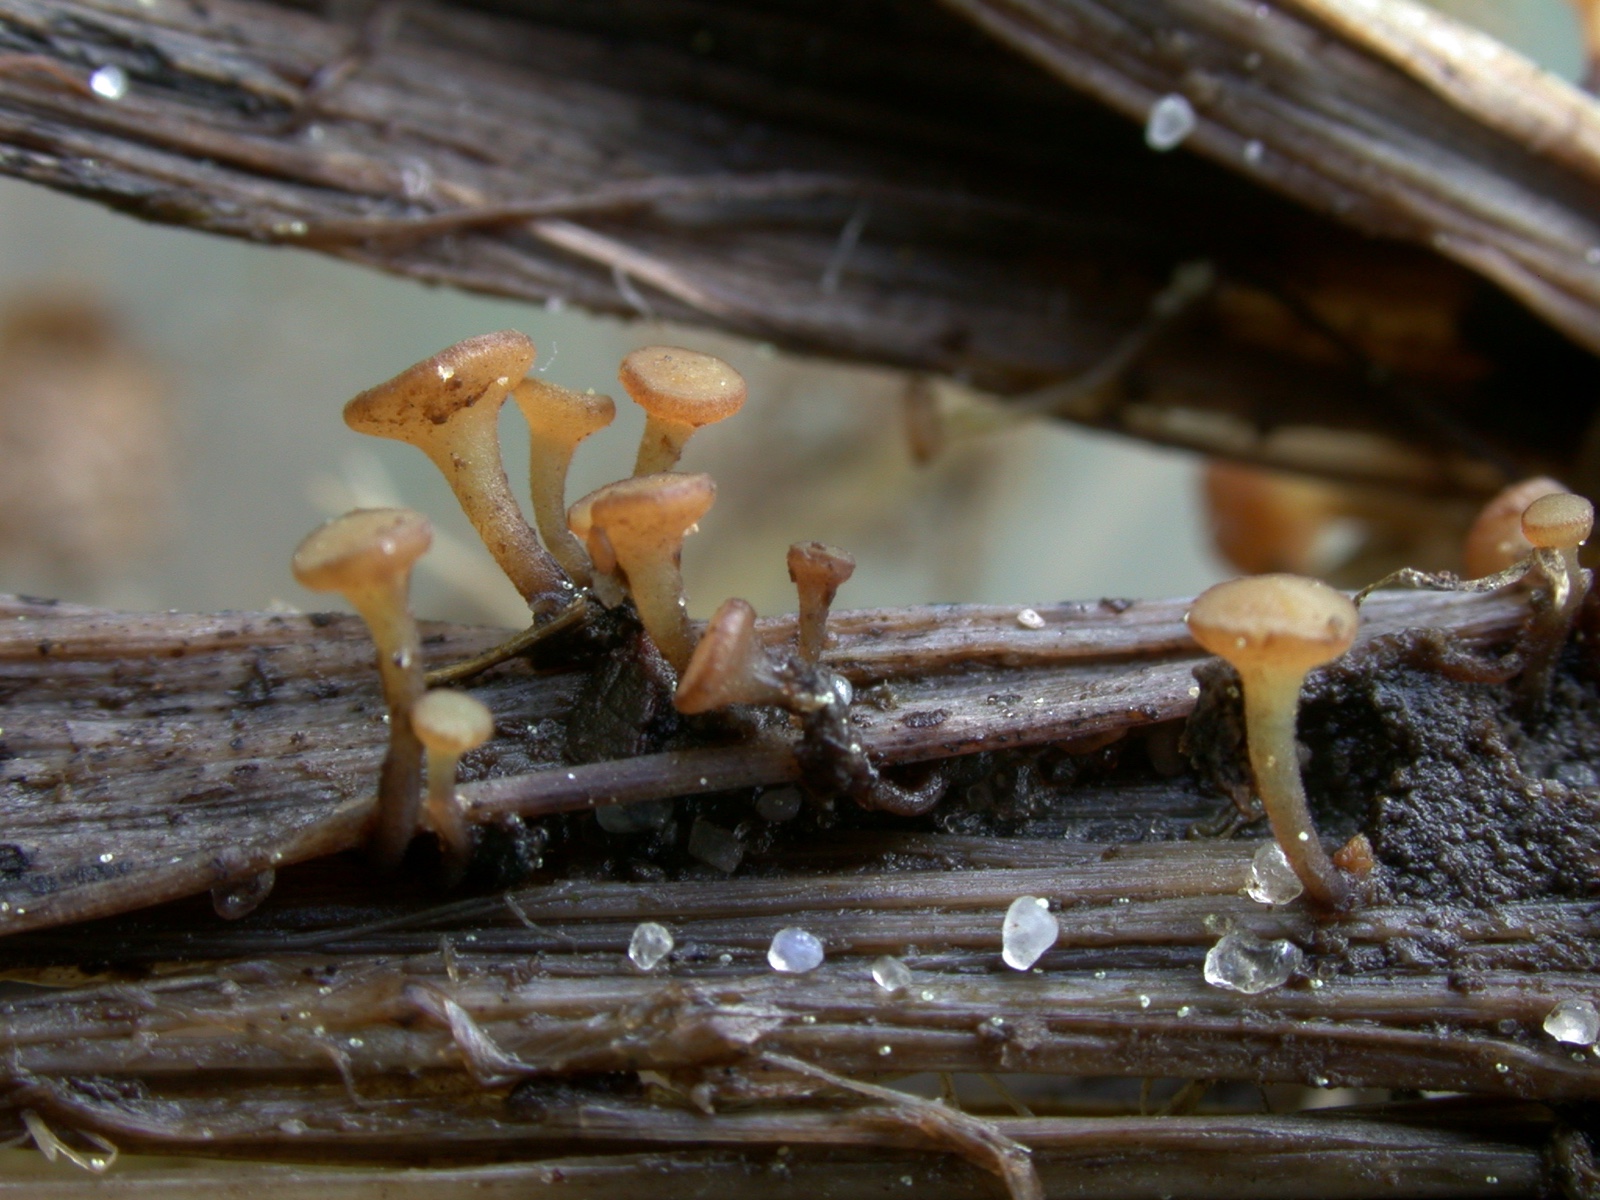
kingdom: Fungi
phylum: Ascomycota
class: Leotiomycetes
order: Helotiales
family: Sclerotiniaceae
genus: Clarireedia
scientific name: Clarireedia
